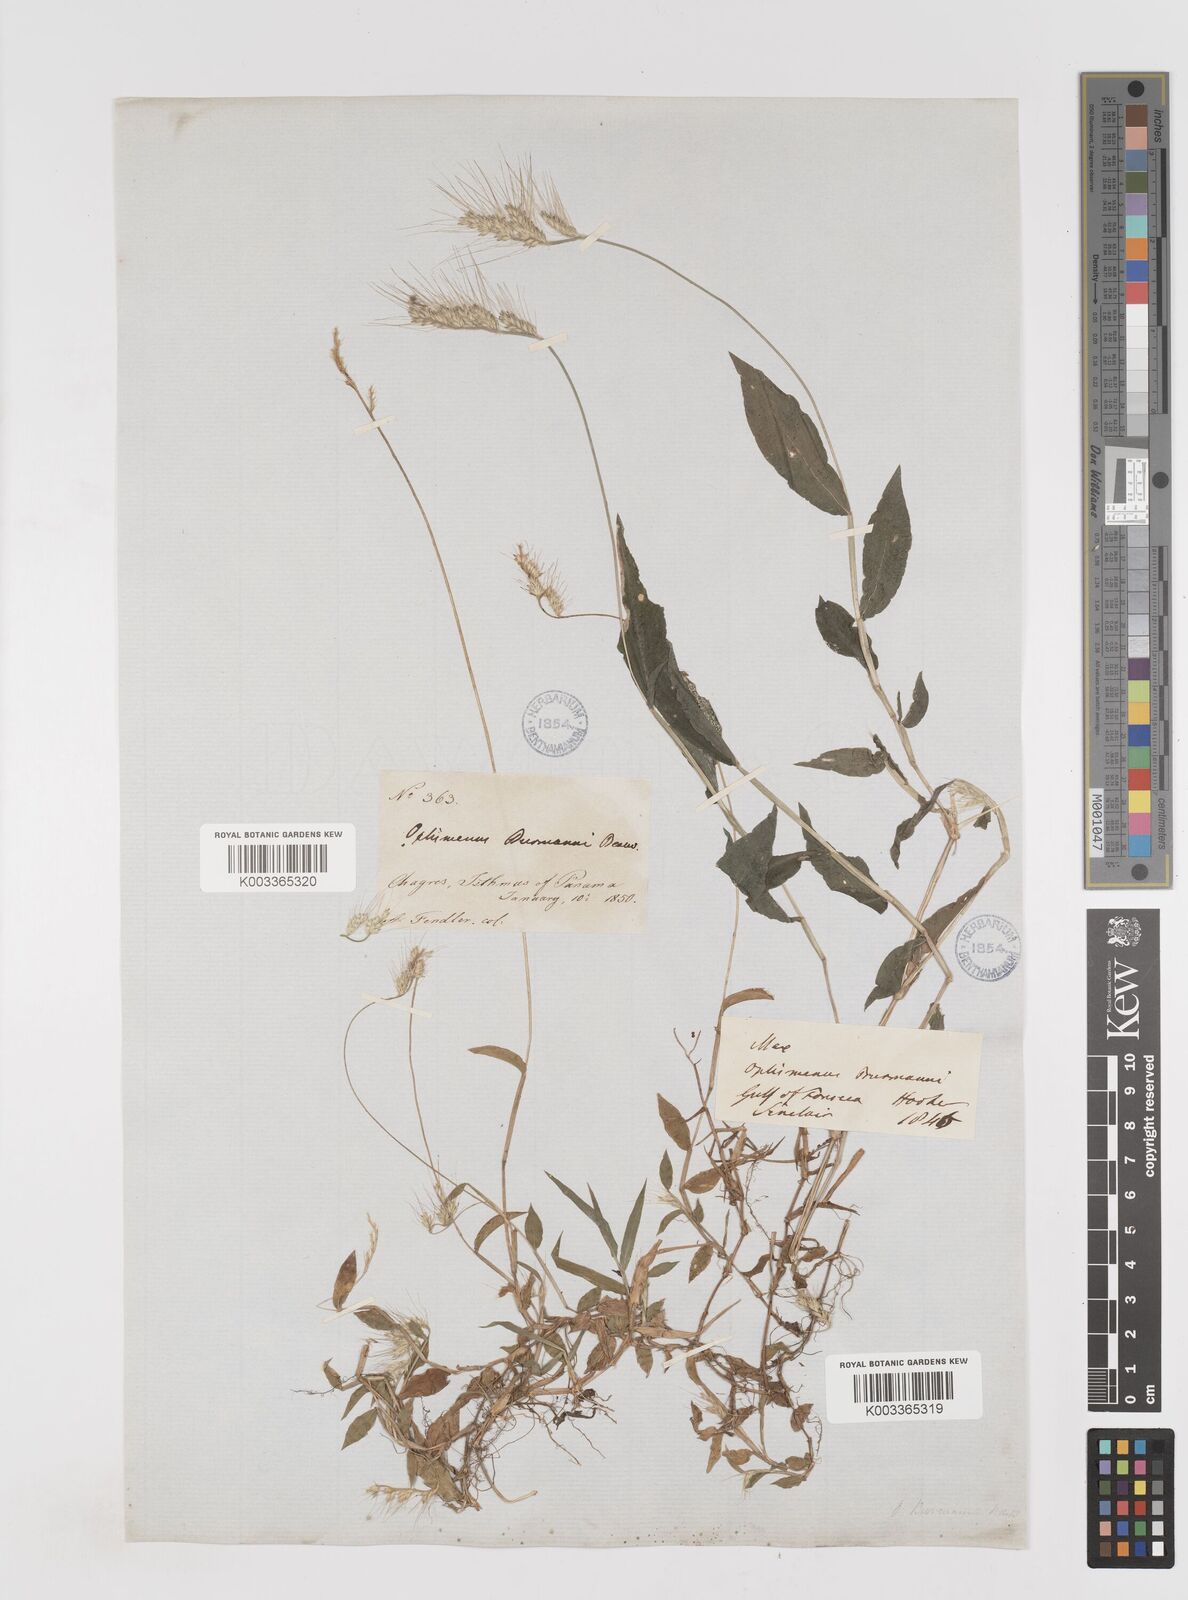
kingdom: Plantae
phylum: Tracheophyta
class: Liliopsida
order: Poales
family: Poaceae
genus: Oplismenus
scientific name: Oplismenus burmanni
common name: Burmann's basketgrass
